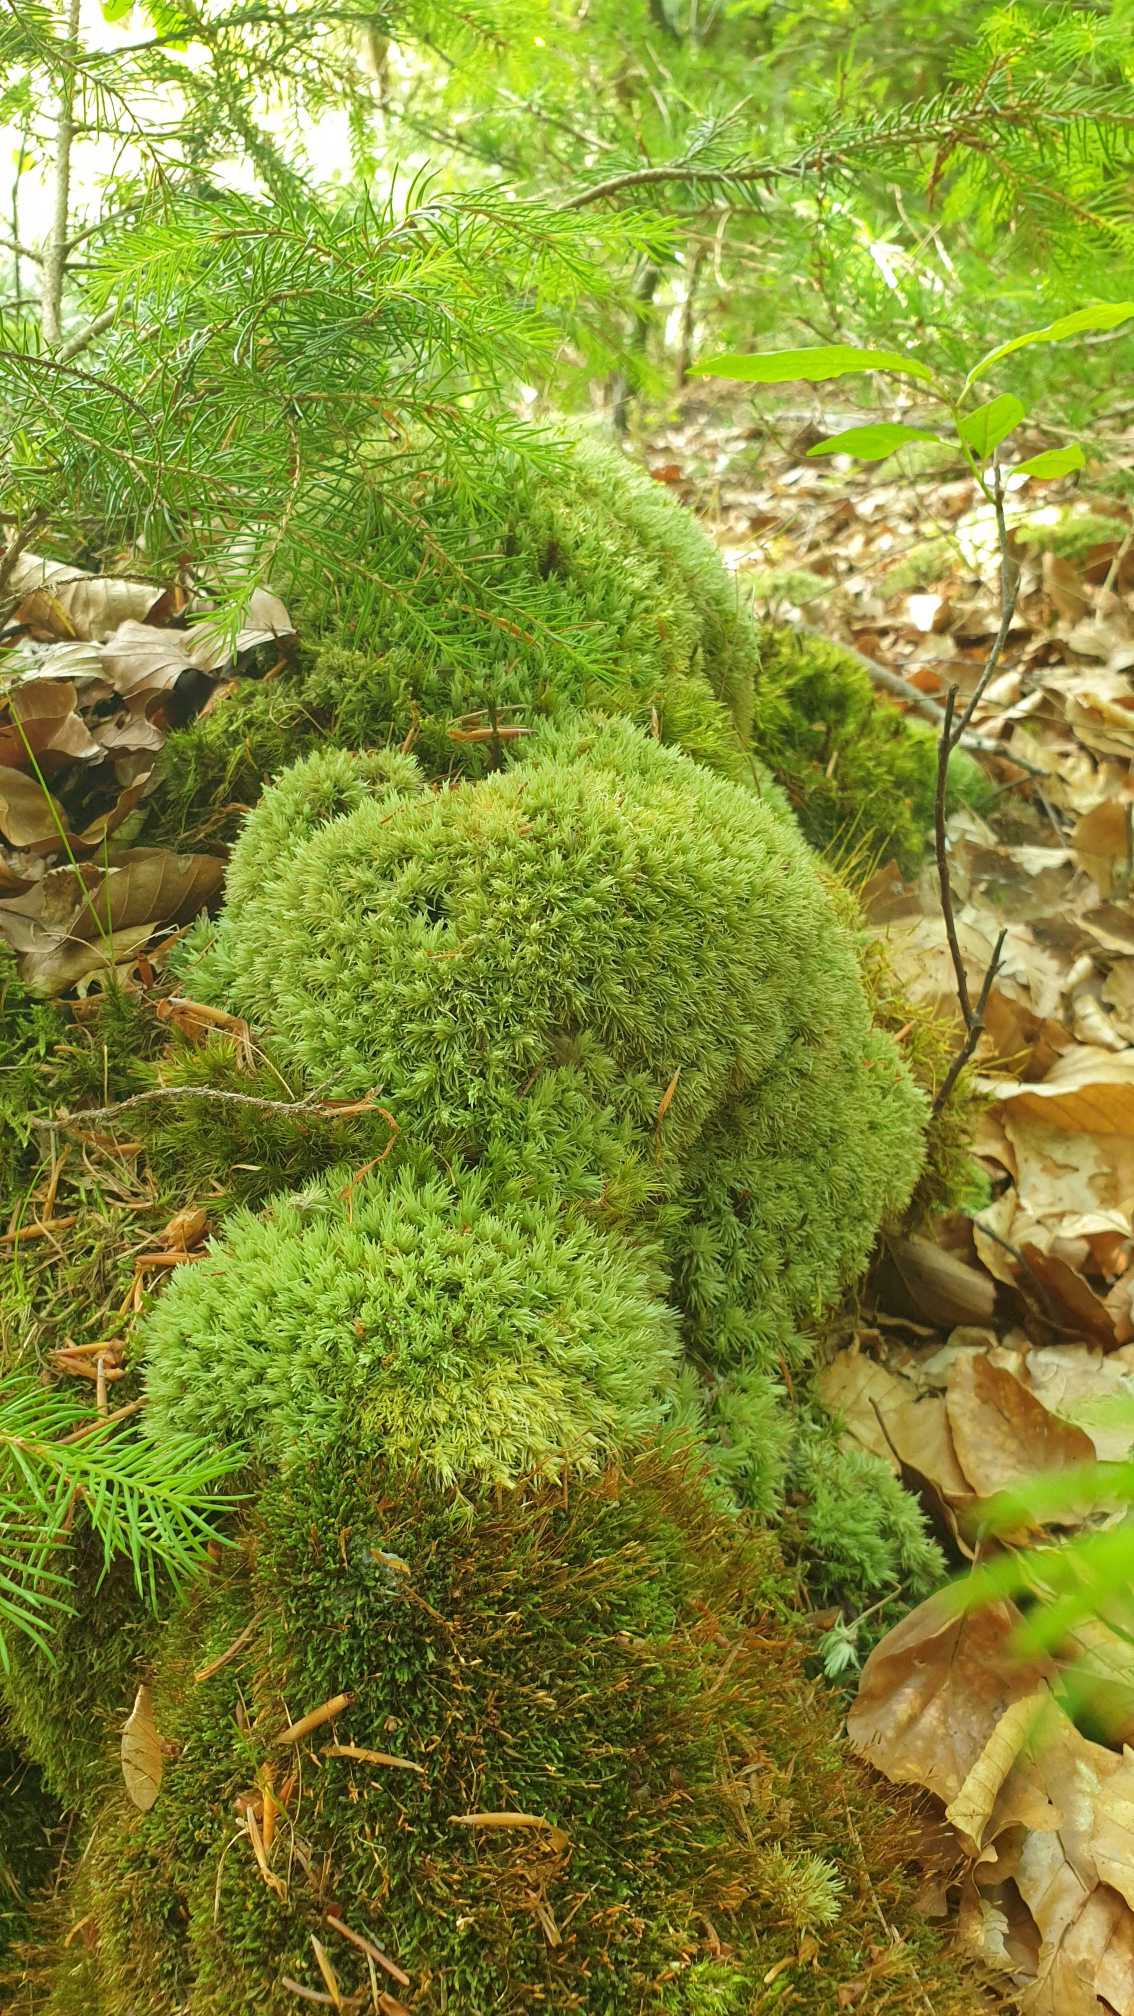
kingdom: Plantae
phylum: Bryophyta
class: Bryopsida
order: Dicranales
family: Leucobryaceae
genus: Leucobryum
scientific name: Leucobryum glaucum
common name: Almindelig hvidmos
